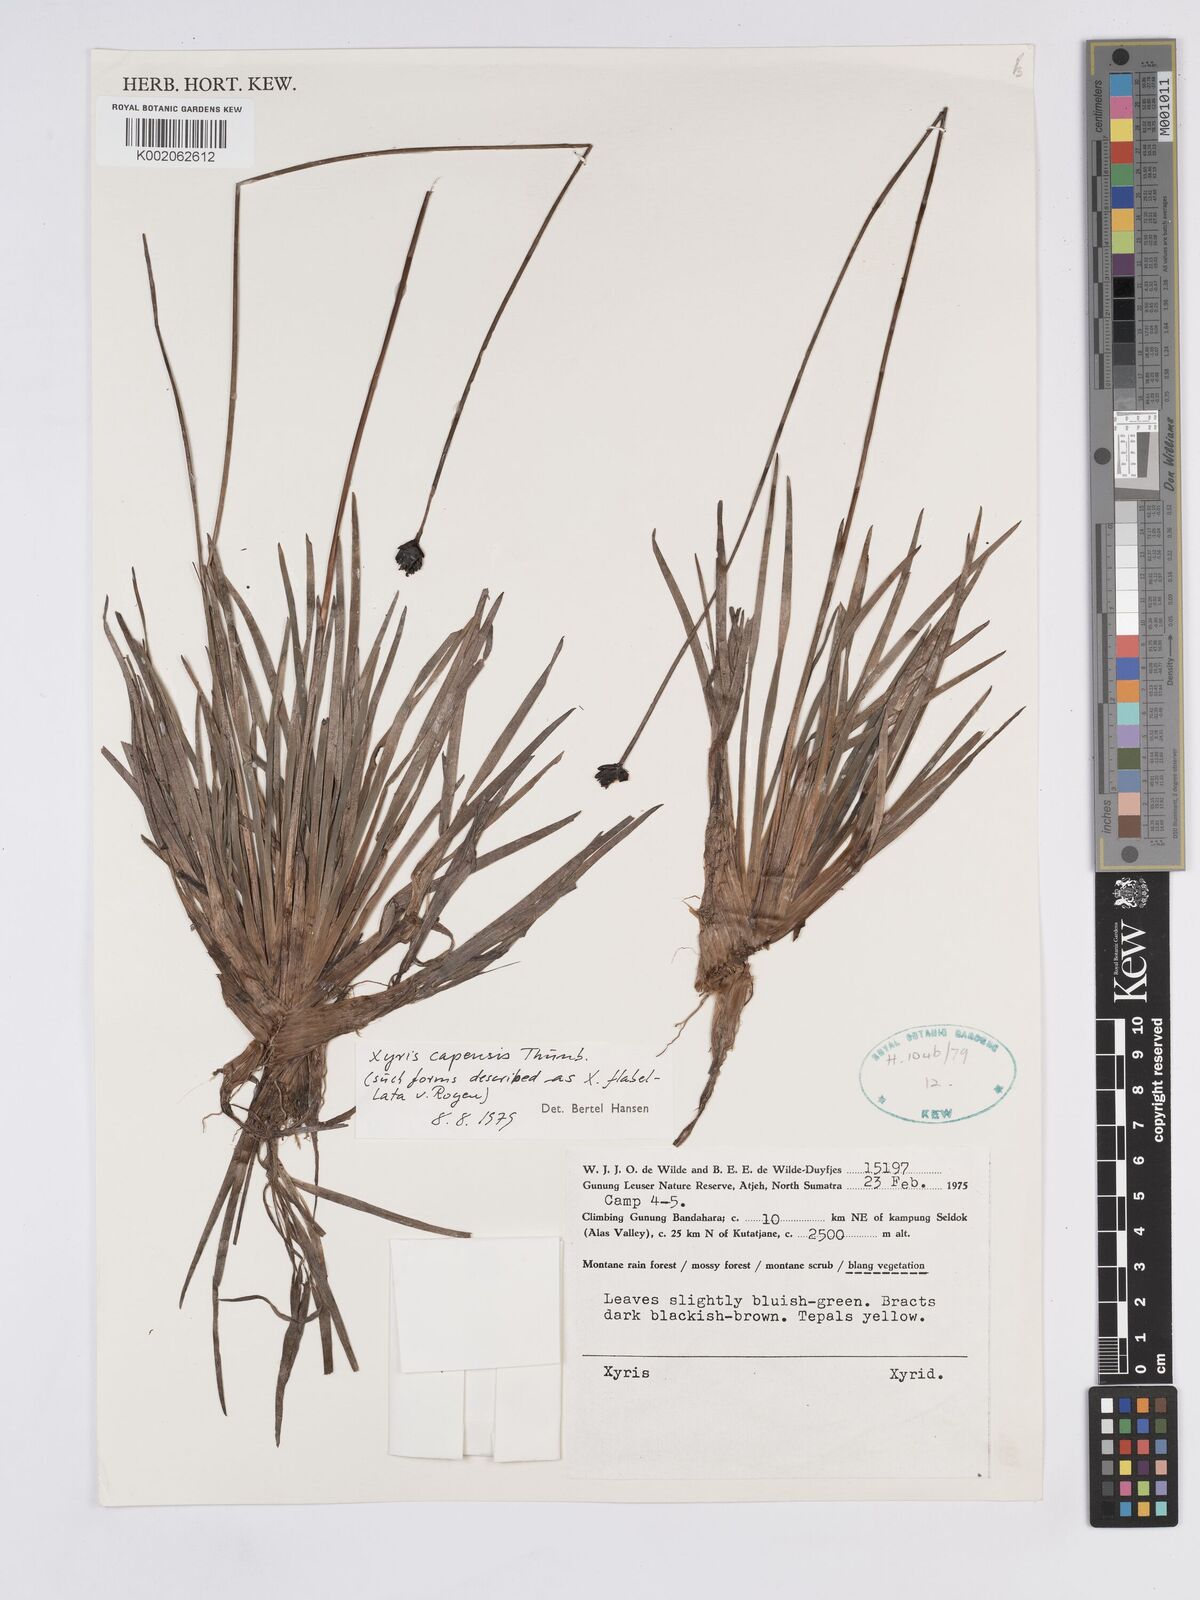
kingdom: Plantae
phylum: Tracheophyta
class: Liliopsida
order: Poales
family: Xyridaceae
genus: Xyris
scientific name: Xyris capensis
